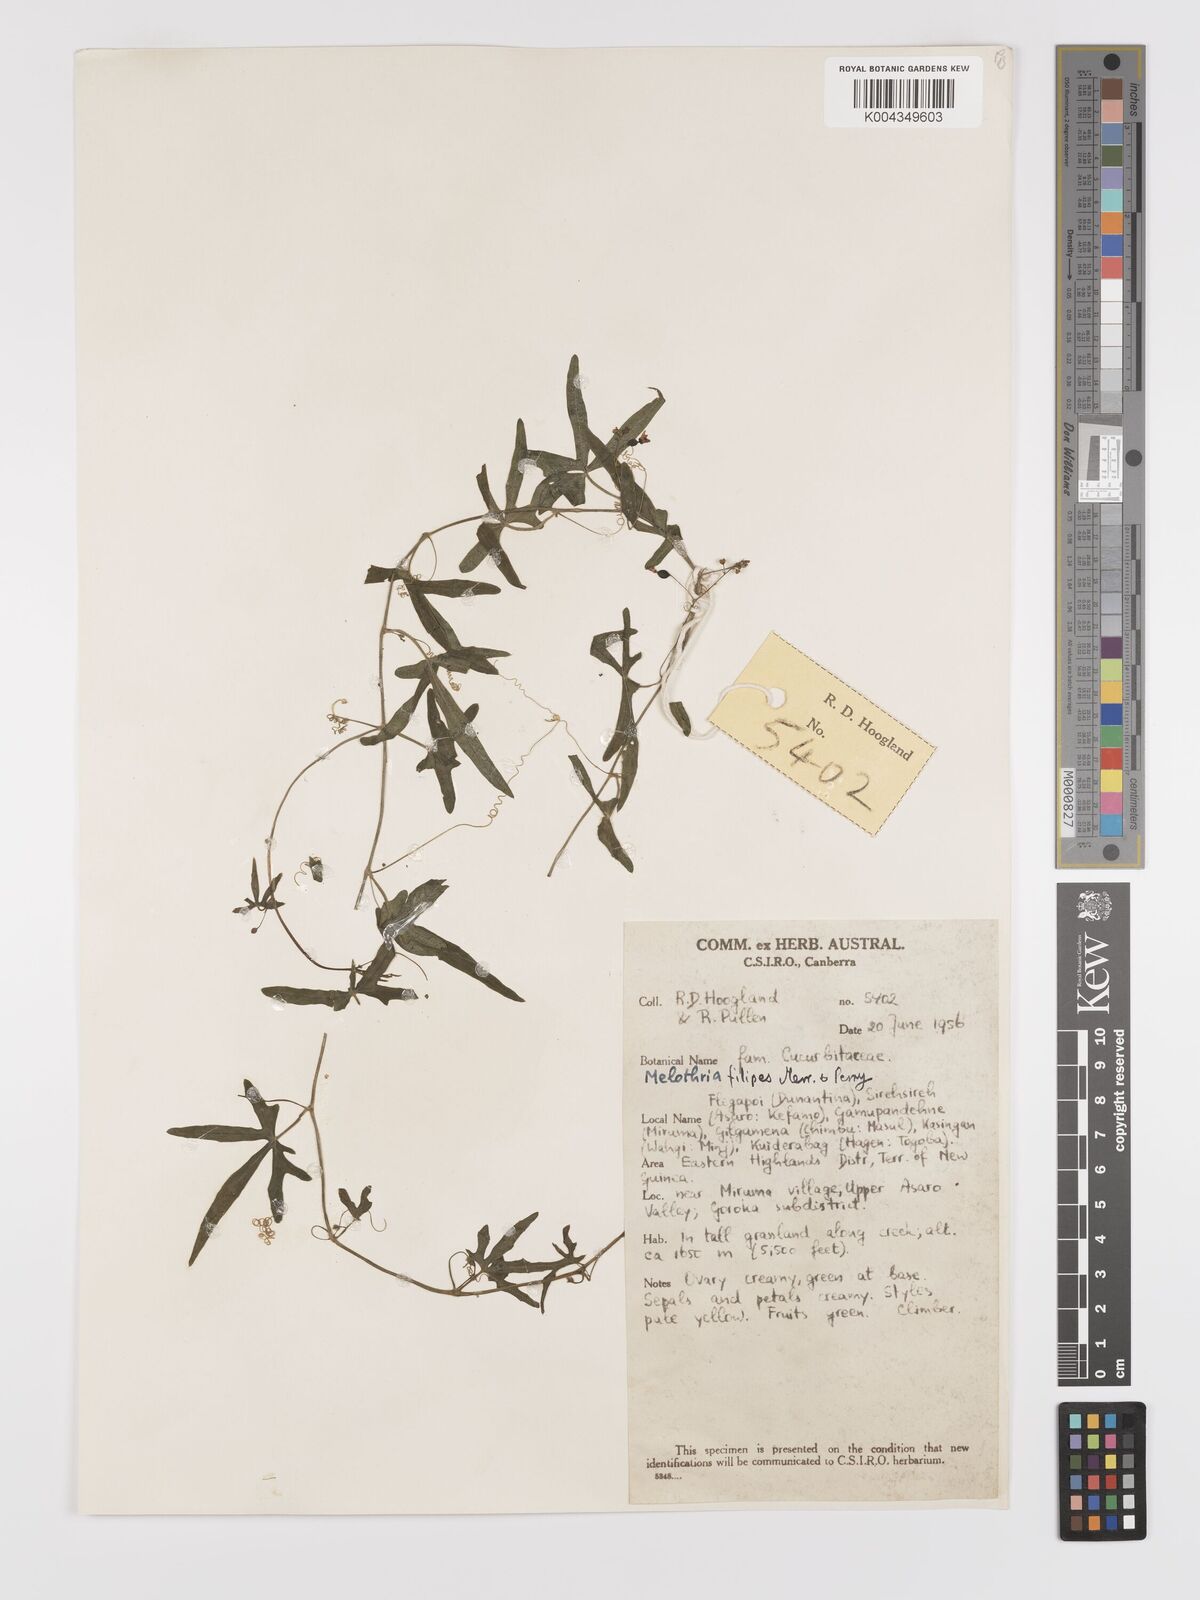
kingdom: Plantae
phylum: Tracheophyta
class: Magnoliopsida
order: Cucurbitales
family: Cucurbitaceae
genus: Zehneria
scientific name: Zehneria filipes
